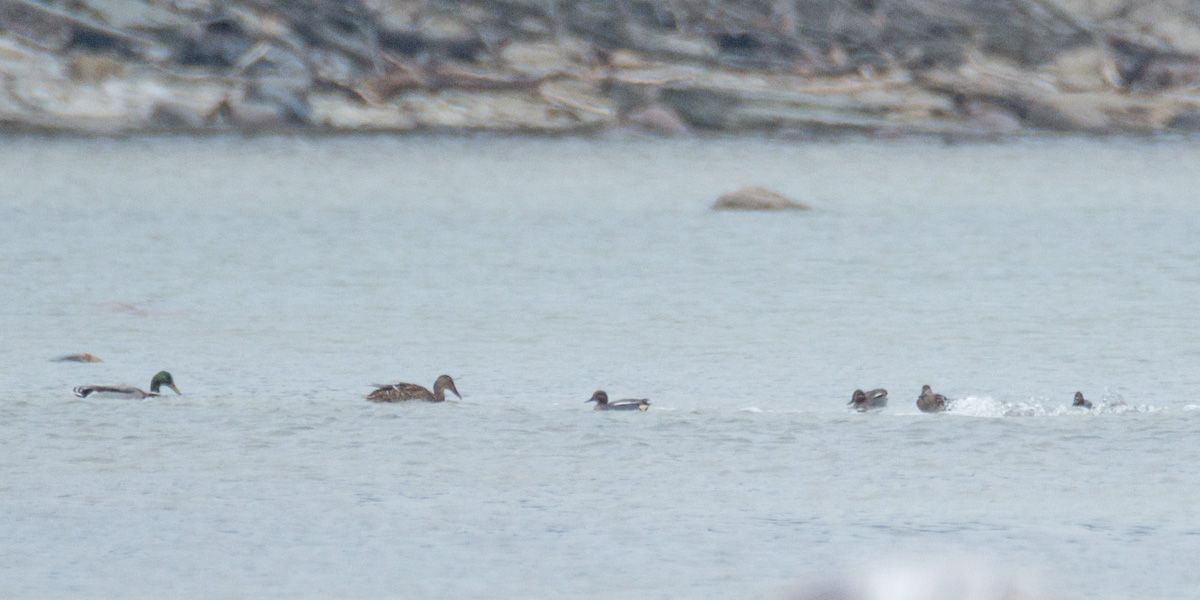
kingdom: Animalia
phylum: Chordata
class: Aves
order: Anseriformes
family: Anatidae
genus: Anas
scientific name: Anas crecca
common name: Eurasian teal
